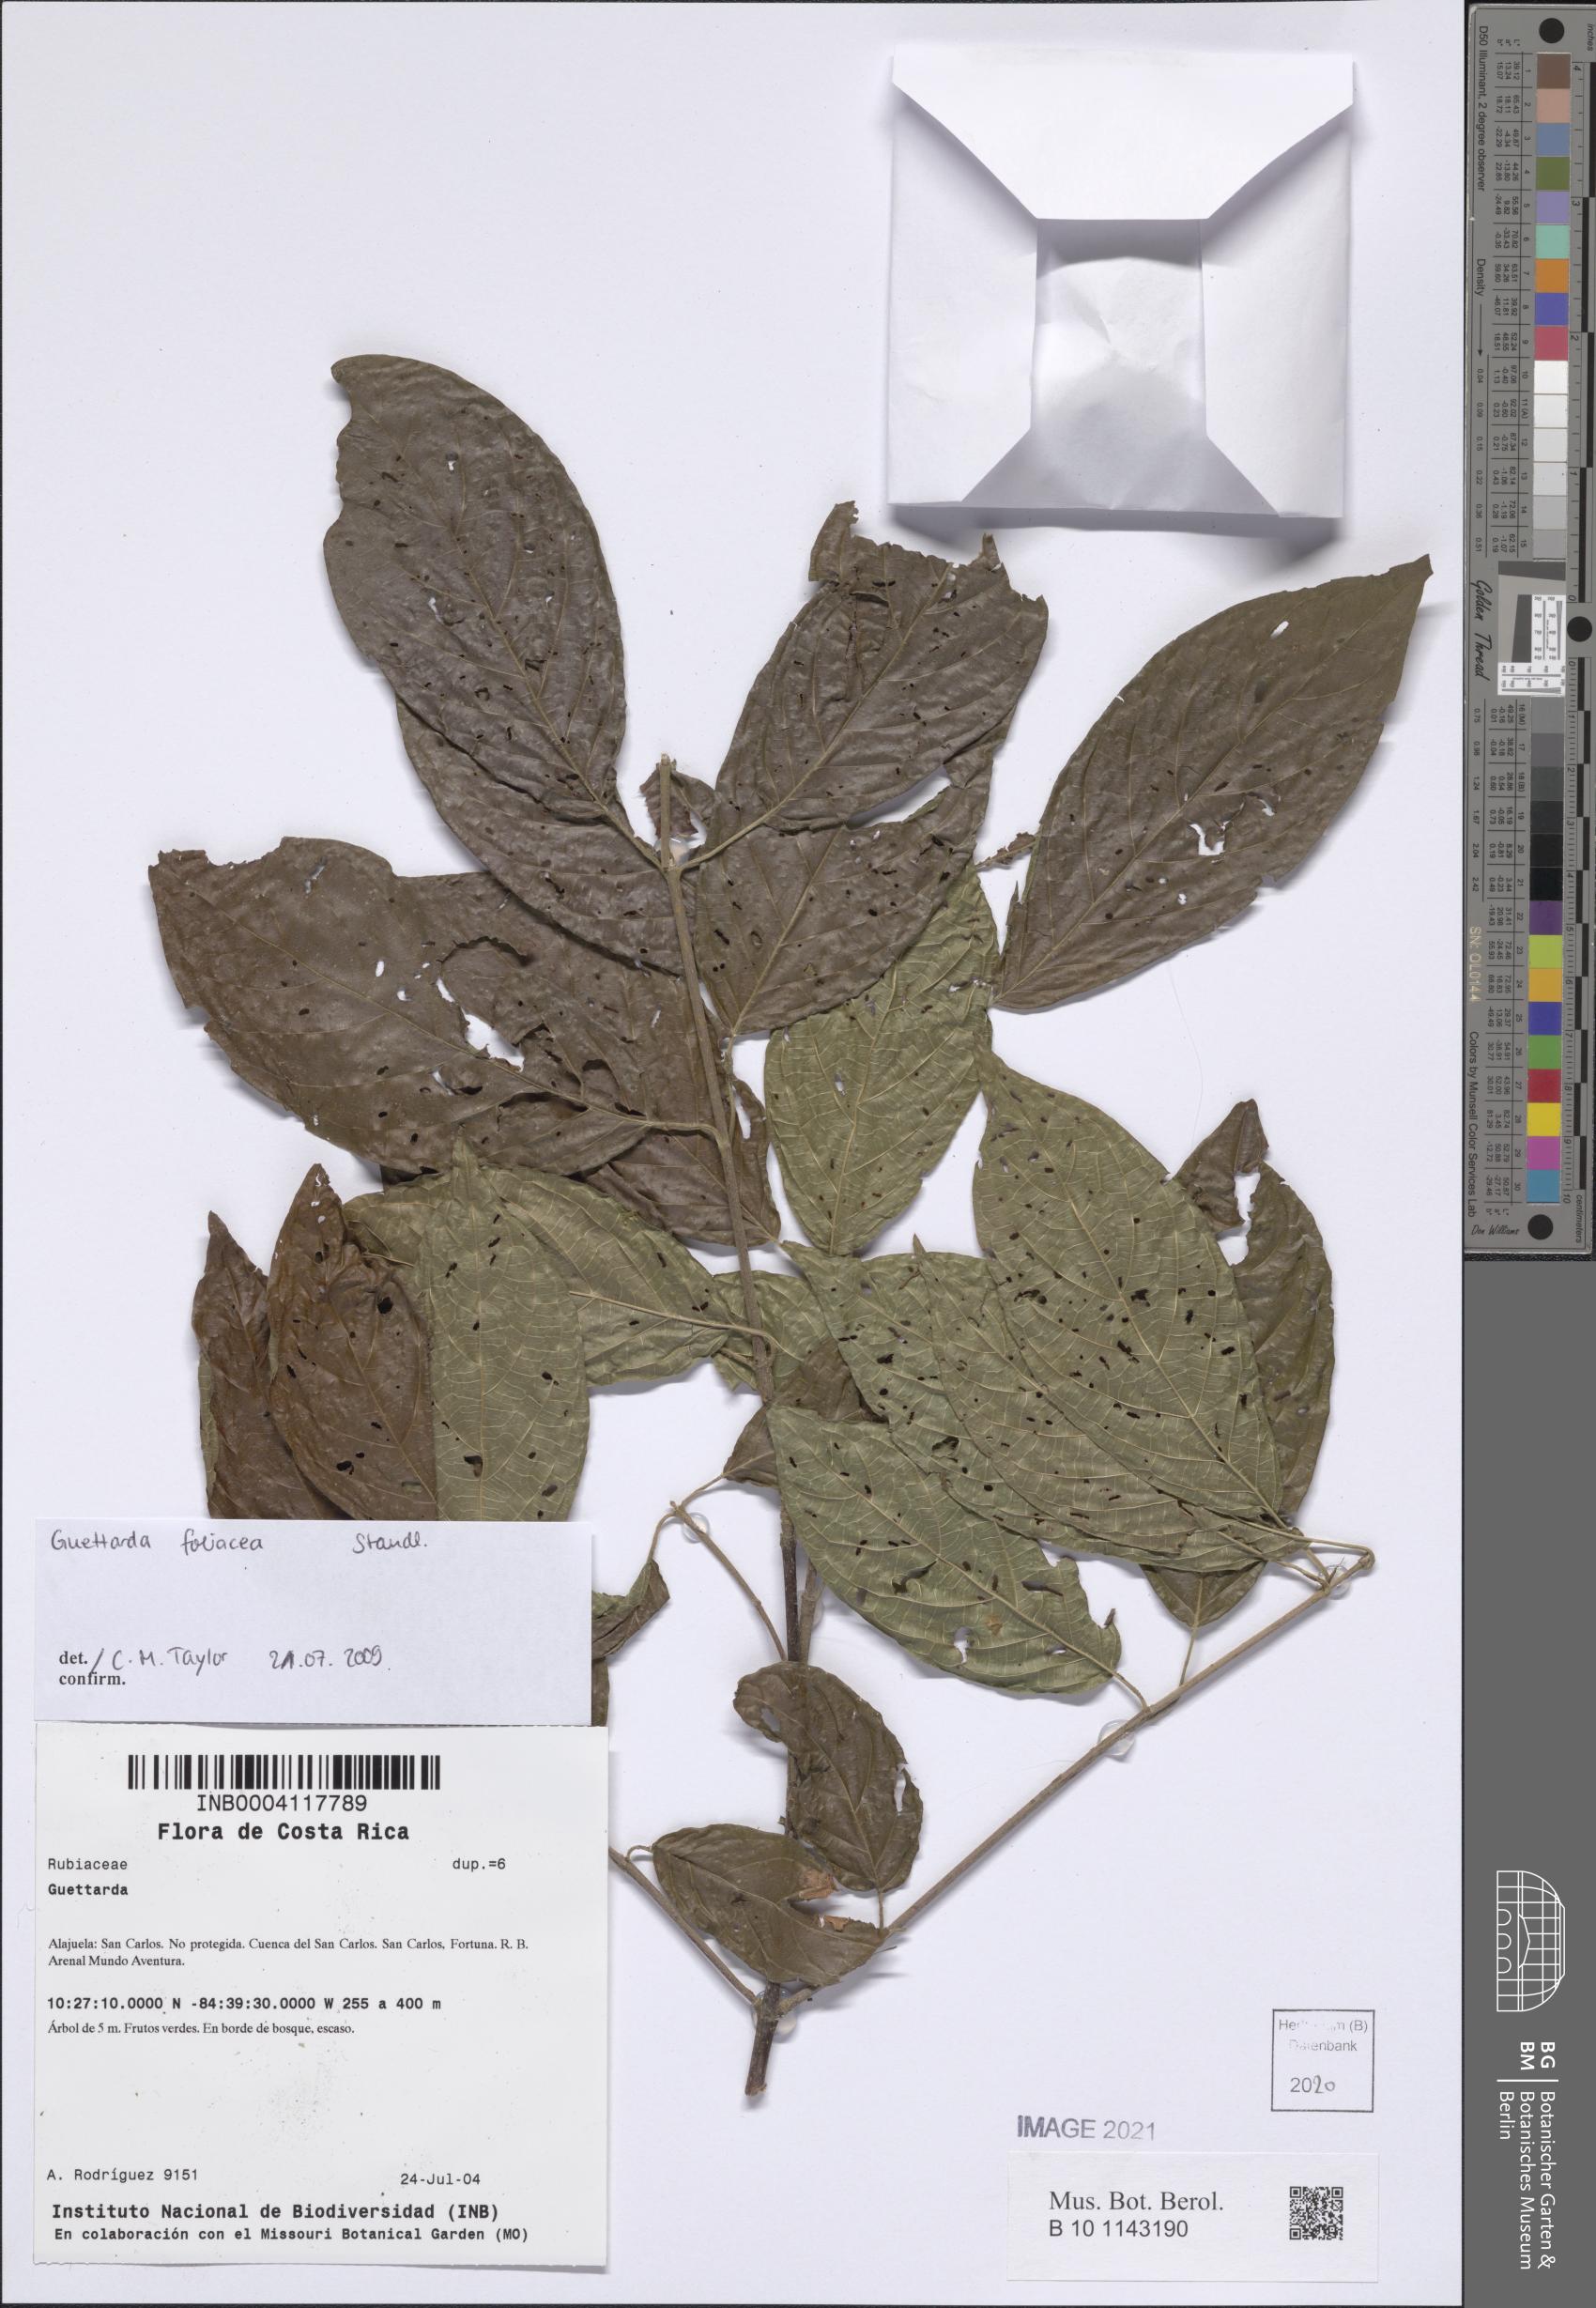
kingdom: Plantae
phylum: Tracheophyta
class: Magnoliopsida
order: Gentianales
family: Rubiaceae
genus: Guettarda
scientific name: Guettarda foliacea
